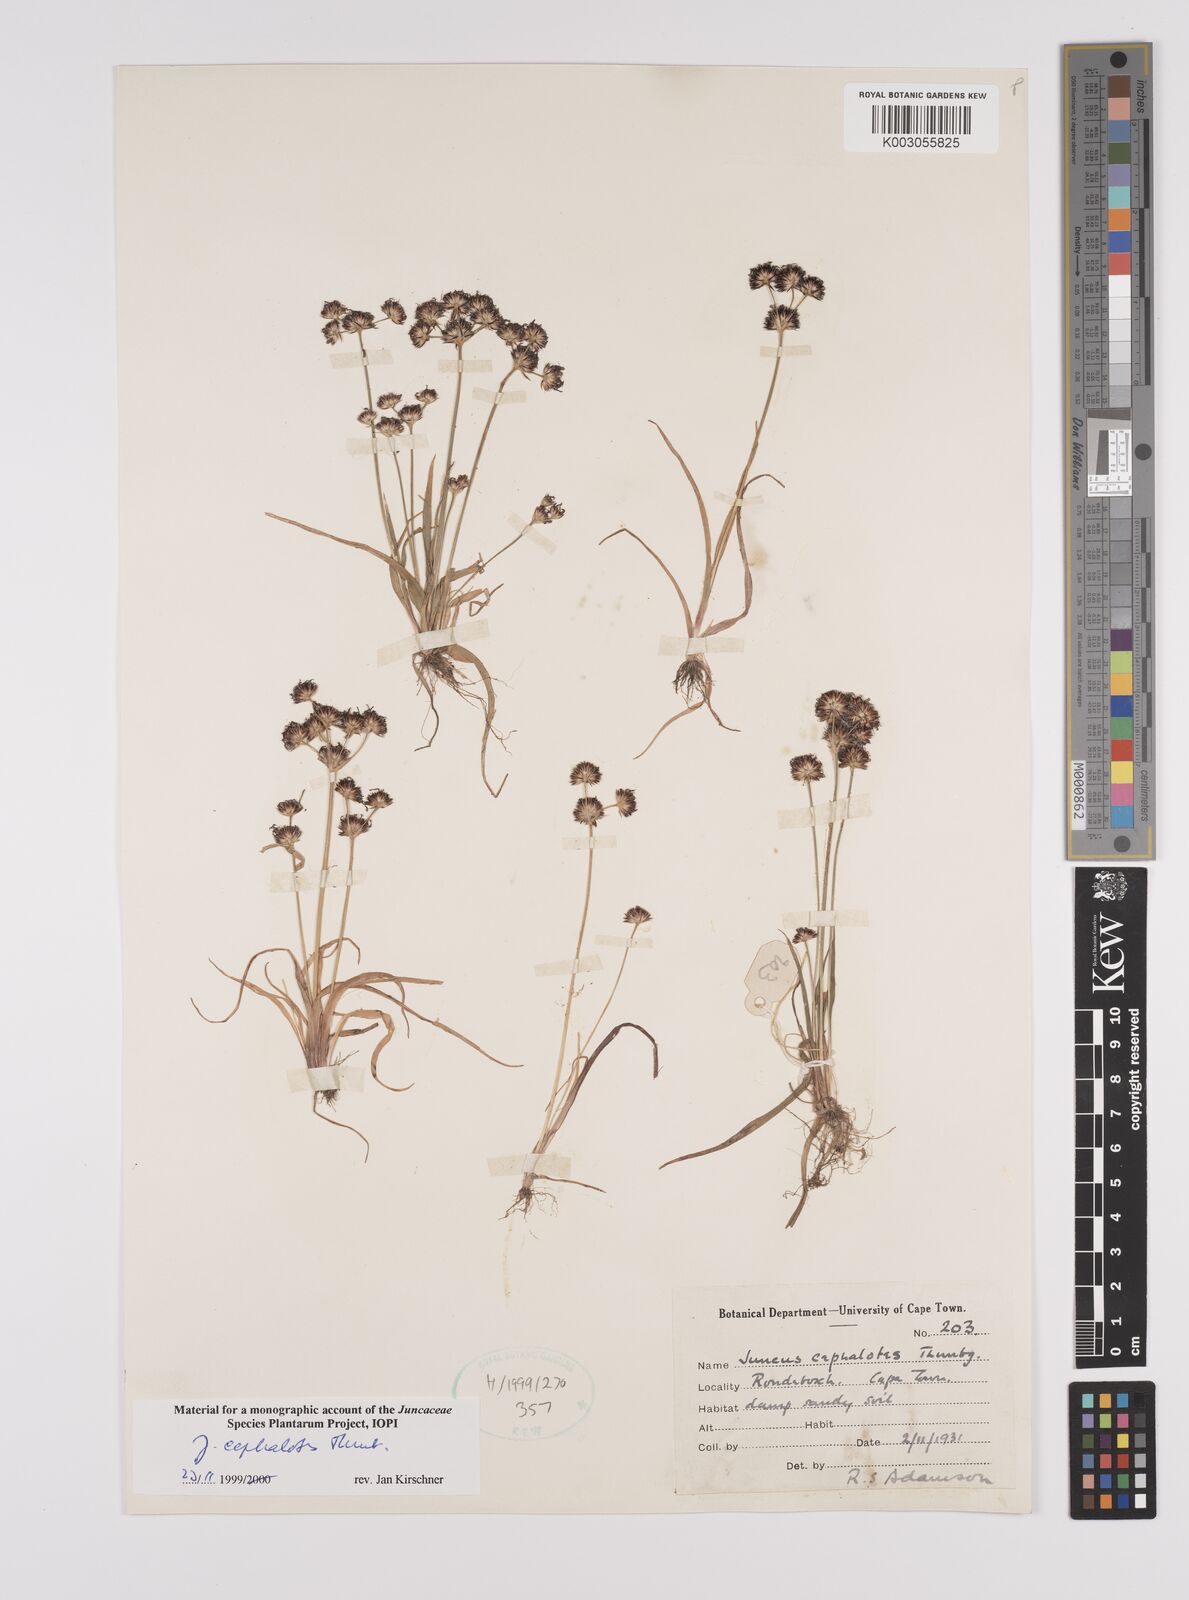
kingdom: Plantae
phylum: Tracheophyta
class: Liliopsida
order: Poales
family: Juncaceae
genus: Juncus
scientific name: Juncus cephalotes
